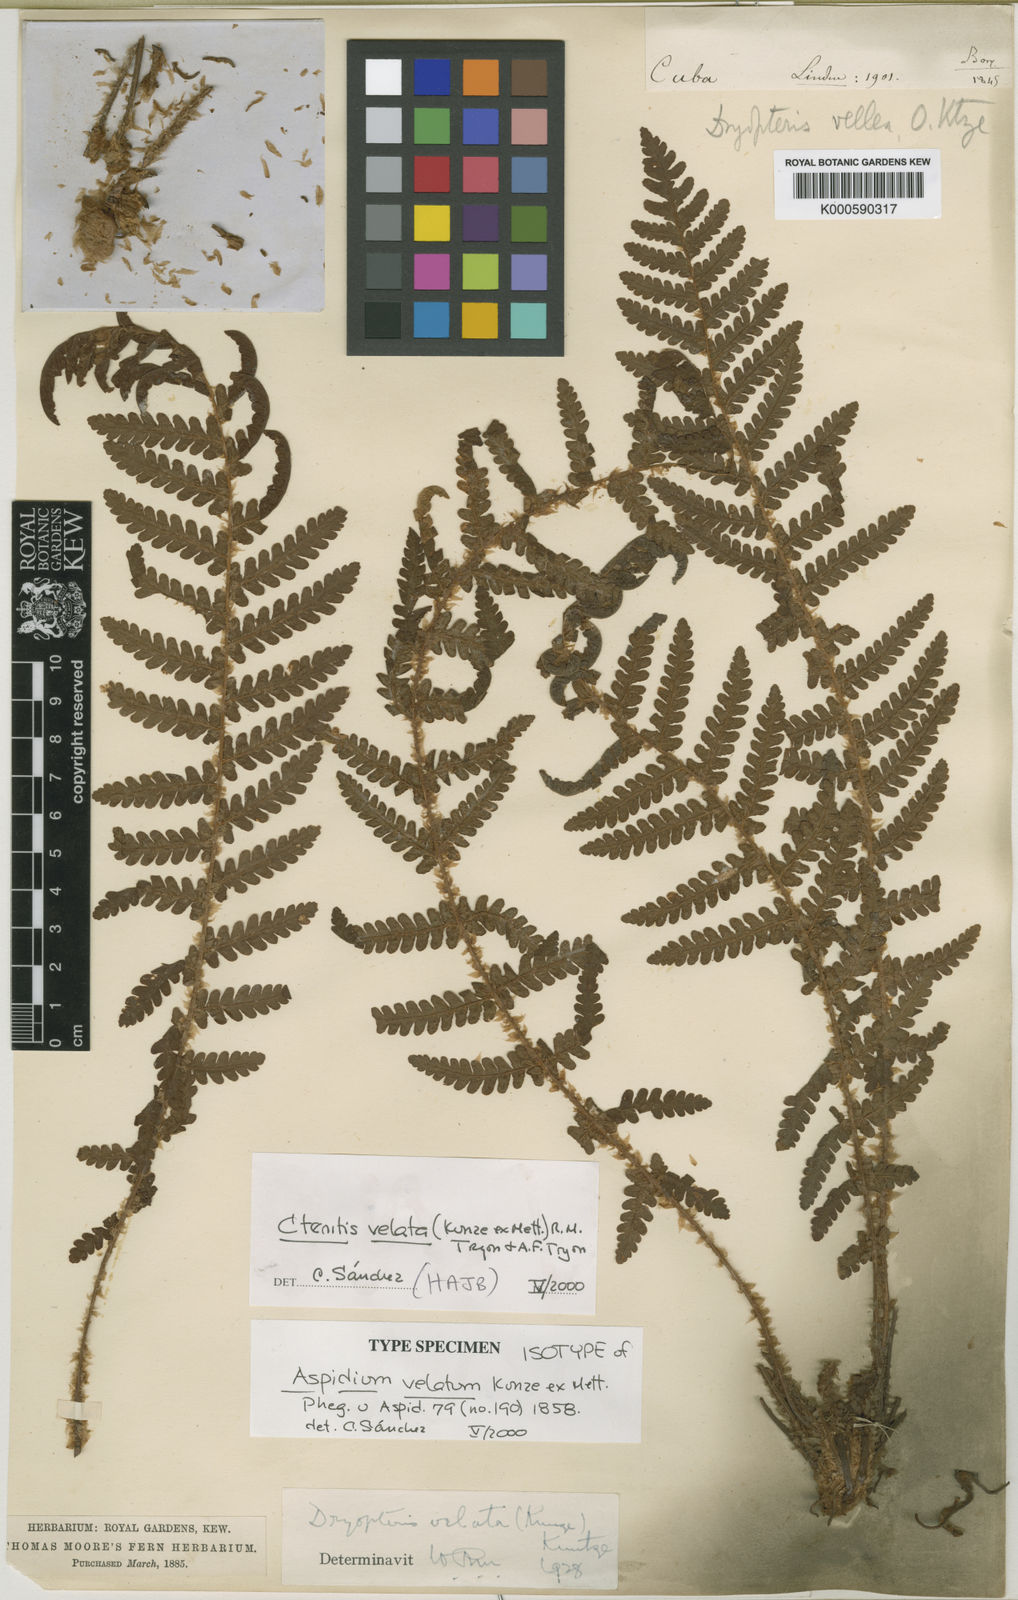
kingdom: Plantae
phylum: Tracheophyta
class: Polypodiopsida
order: Polypodiales
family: Dryopteridaceae
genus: Ctenitis
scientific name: Ctenitis velata
